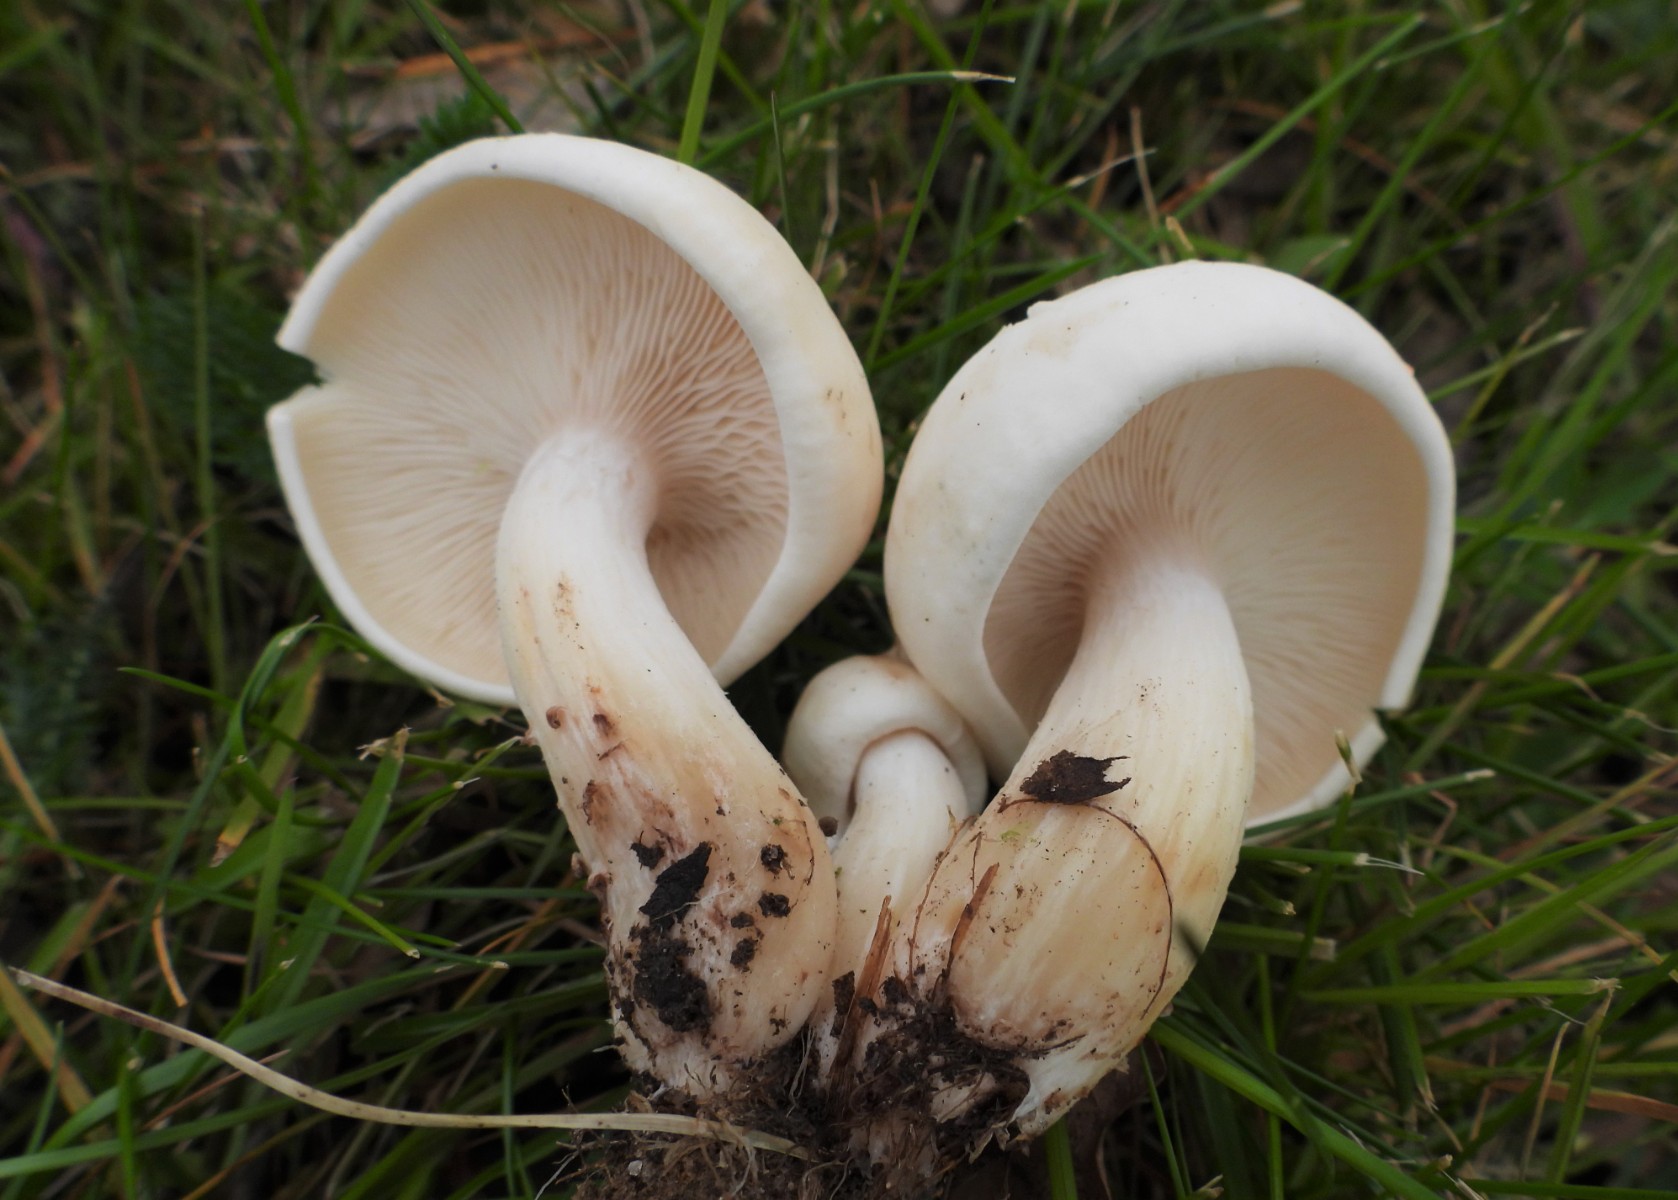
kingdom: Fungi
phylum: Basidiomycota
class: Agaricomycetes
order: Agaricales
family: Lyophyllaceae
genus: Calocybe
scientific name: Calocybe gambosa
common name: vårmusseron
